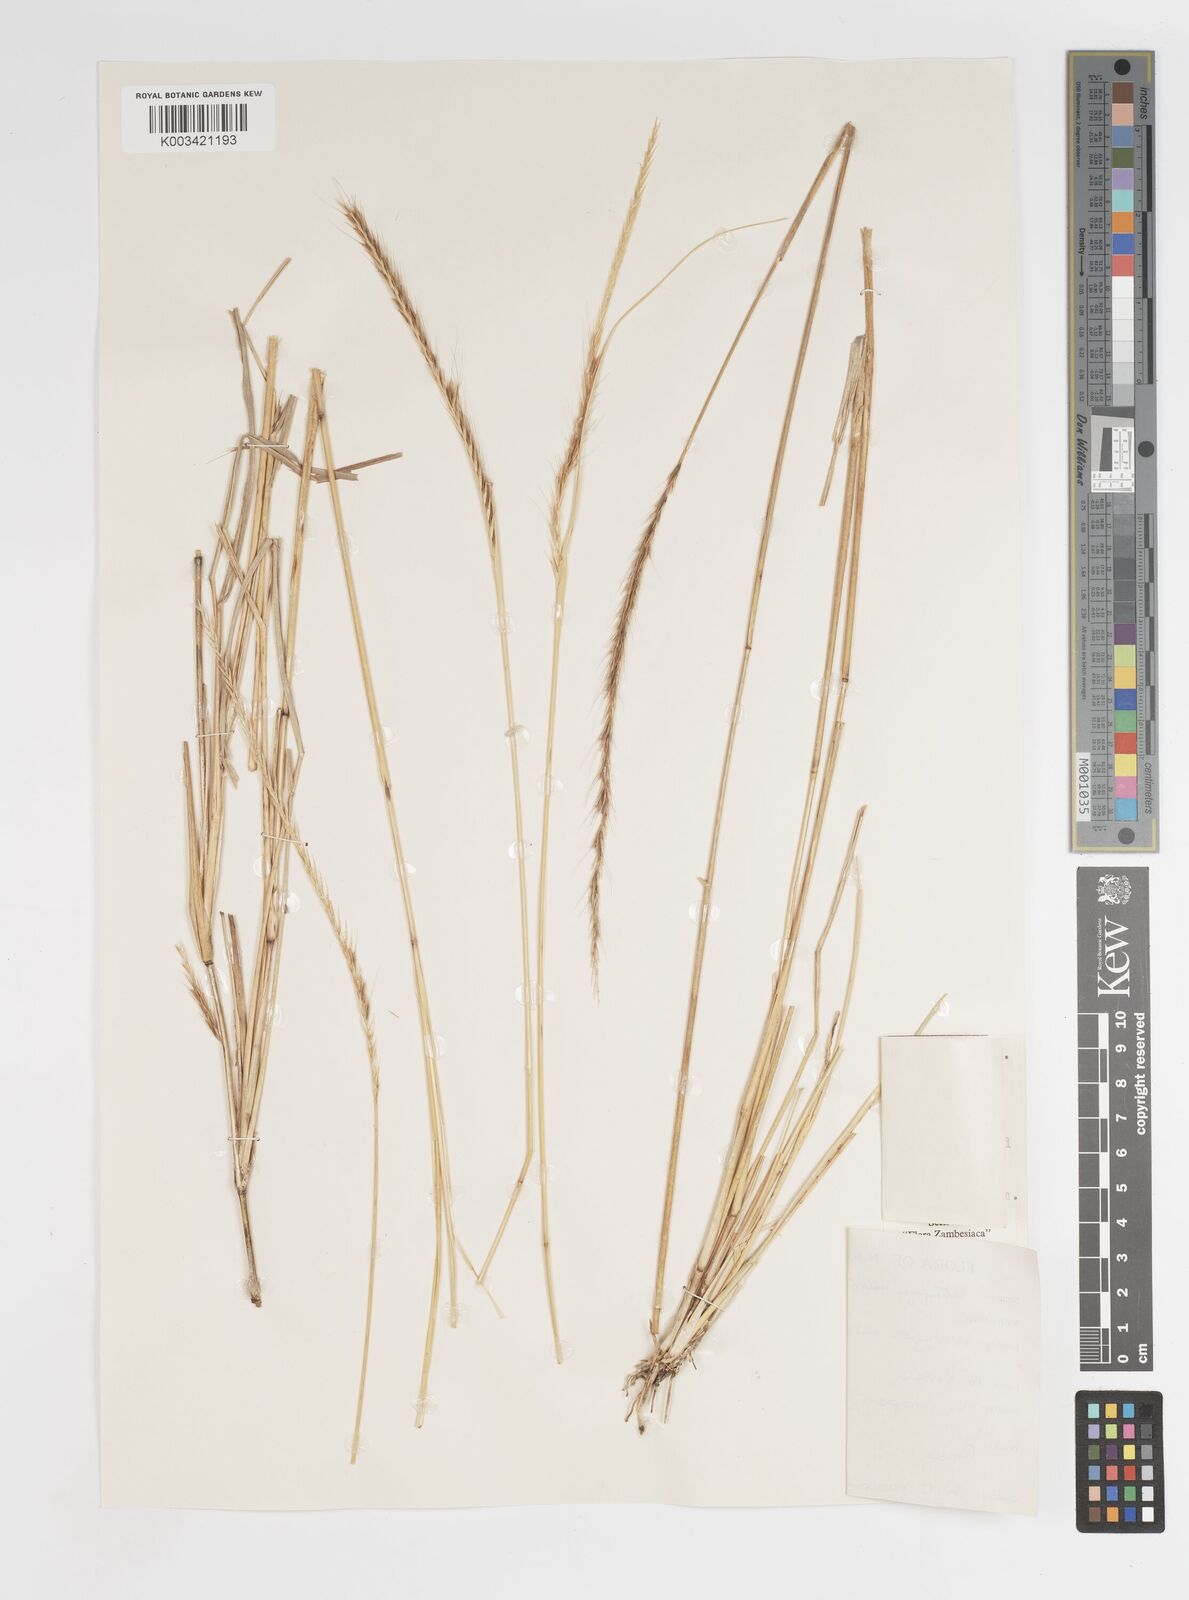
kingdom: Plantae
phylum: Tracheophyta
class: Liliopsida
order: Poales
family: Poaceae
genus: Enteropogon
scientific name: Enteropogon macrostachyus
